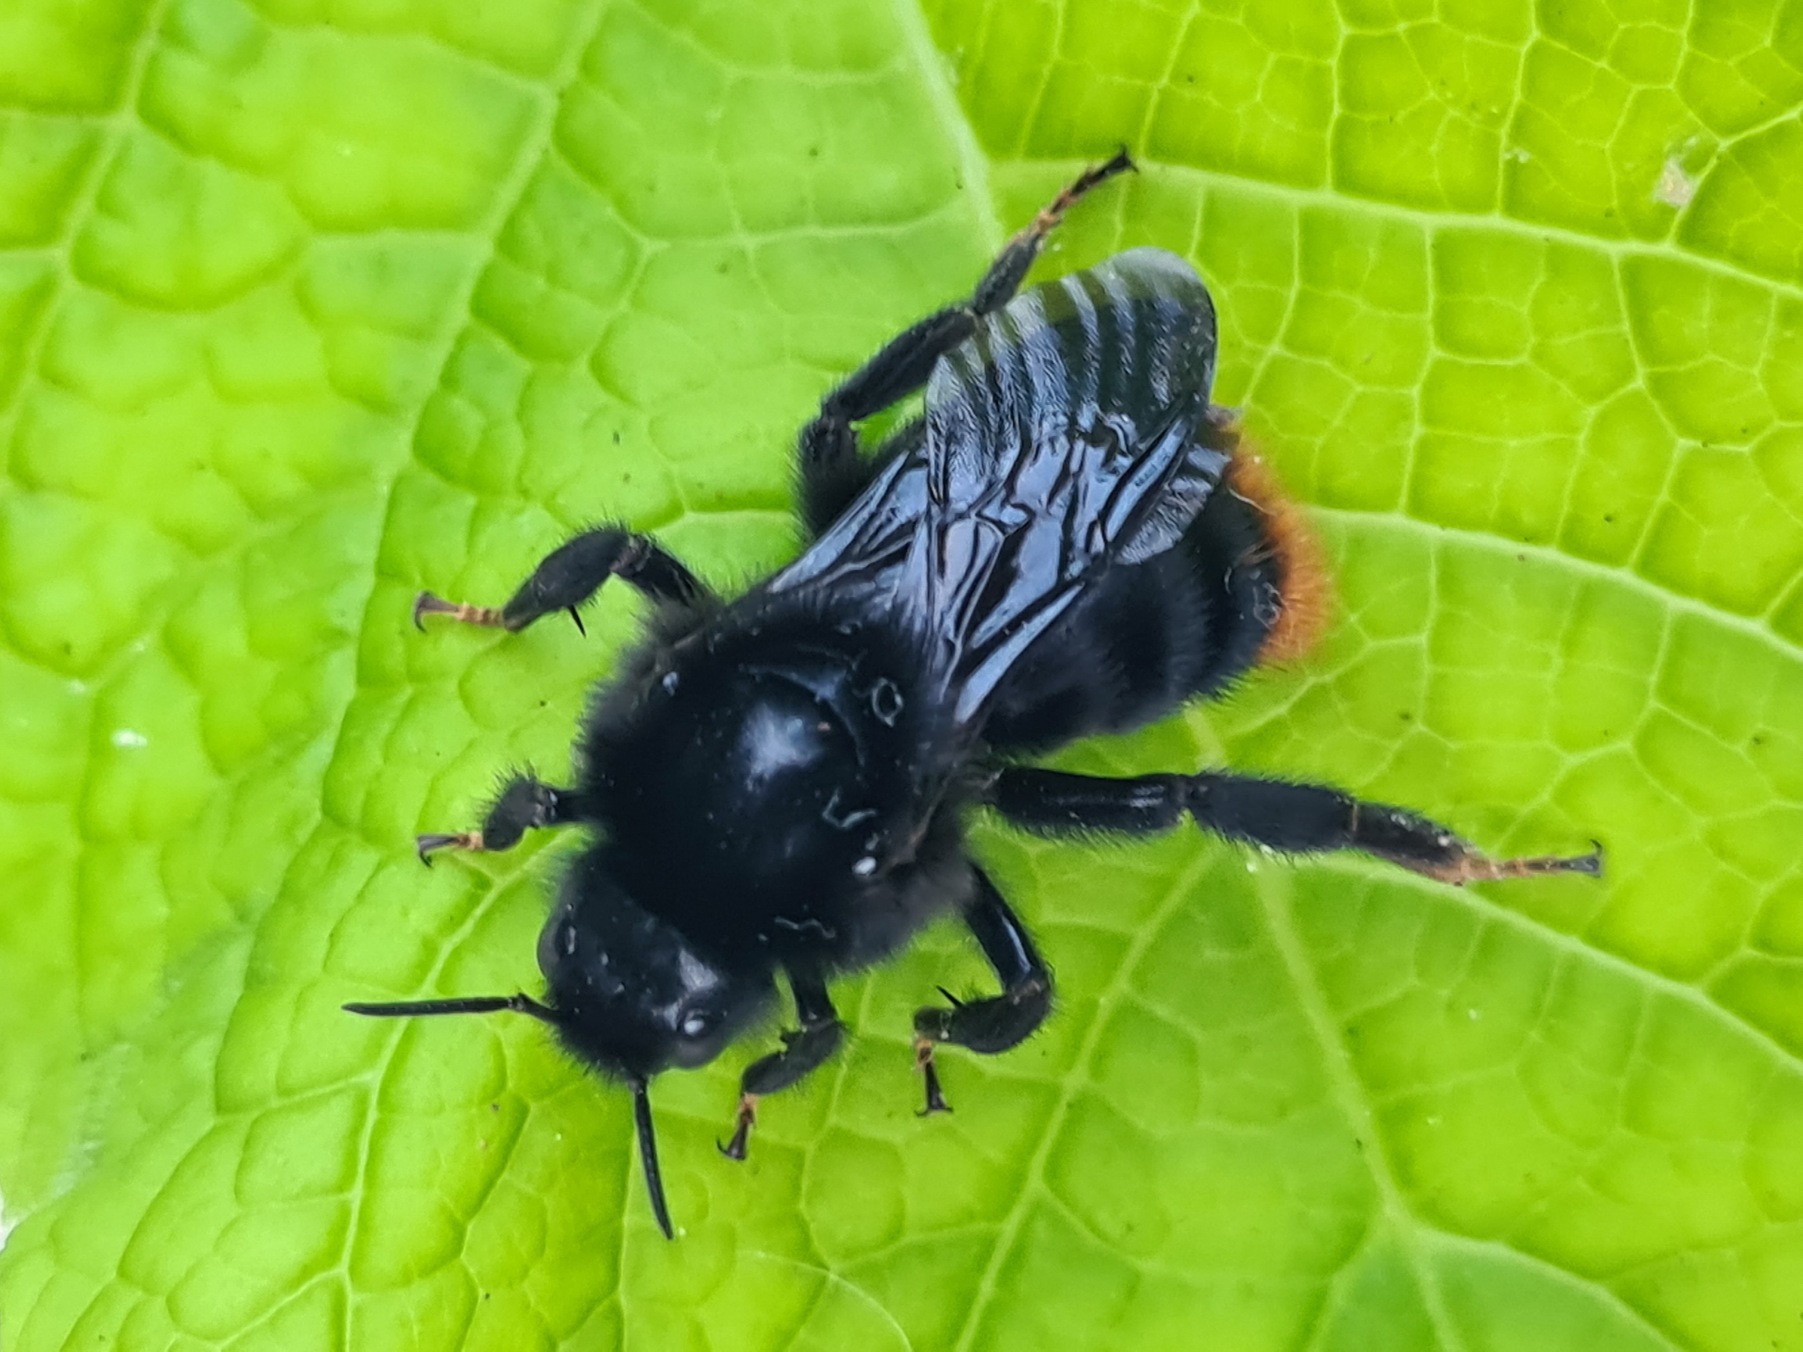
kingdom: Animalia
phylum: Arthropoda
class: Insecta
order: Hymenoptera
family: Apidae
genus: Bombus
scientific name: Bombus rupestris
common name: Stensnyltehumle
